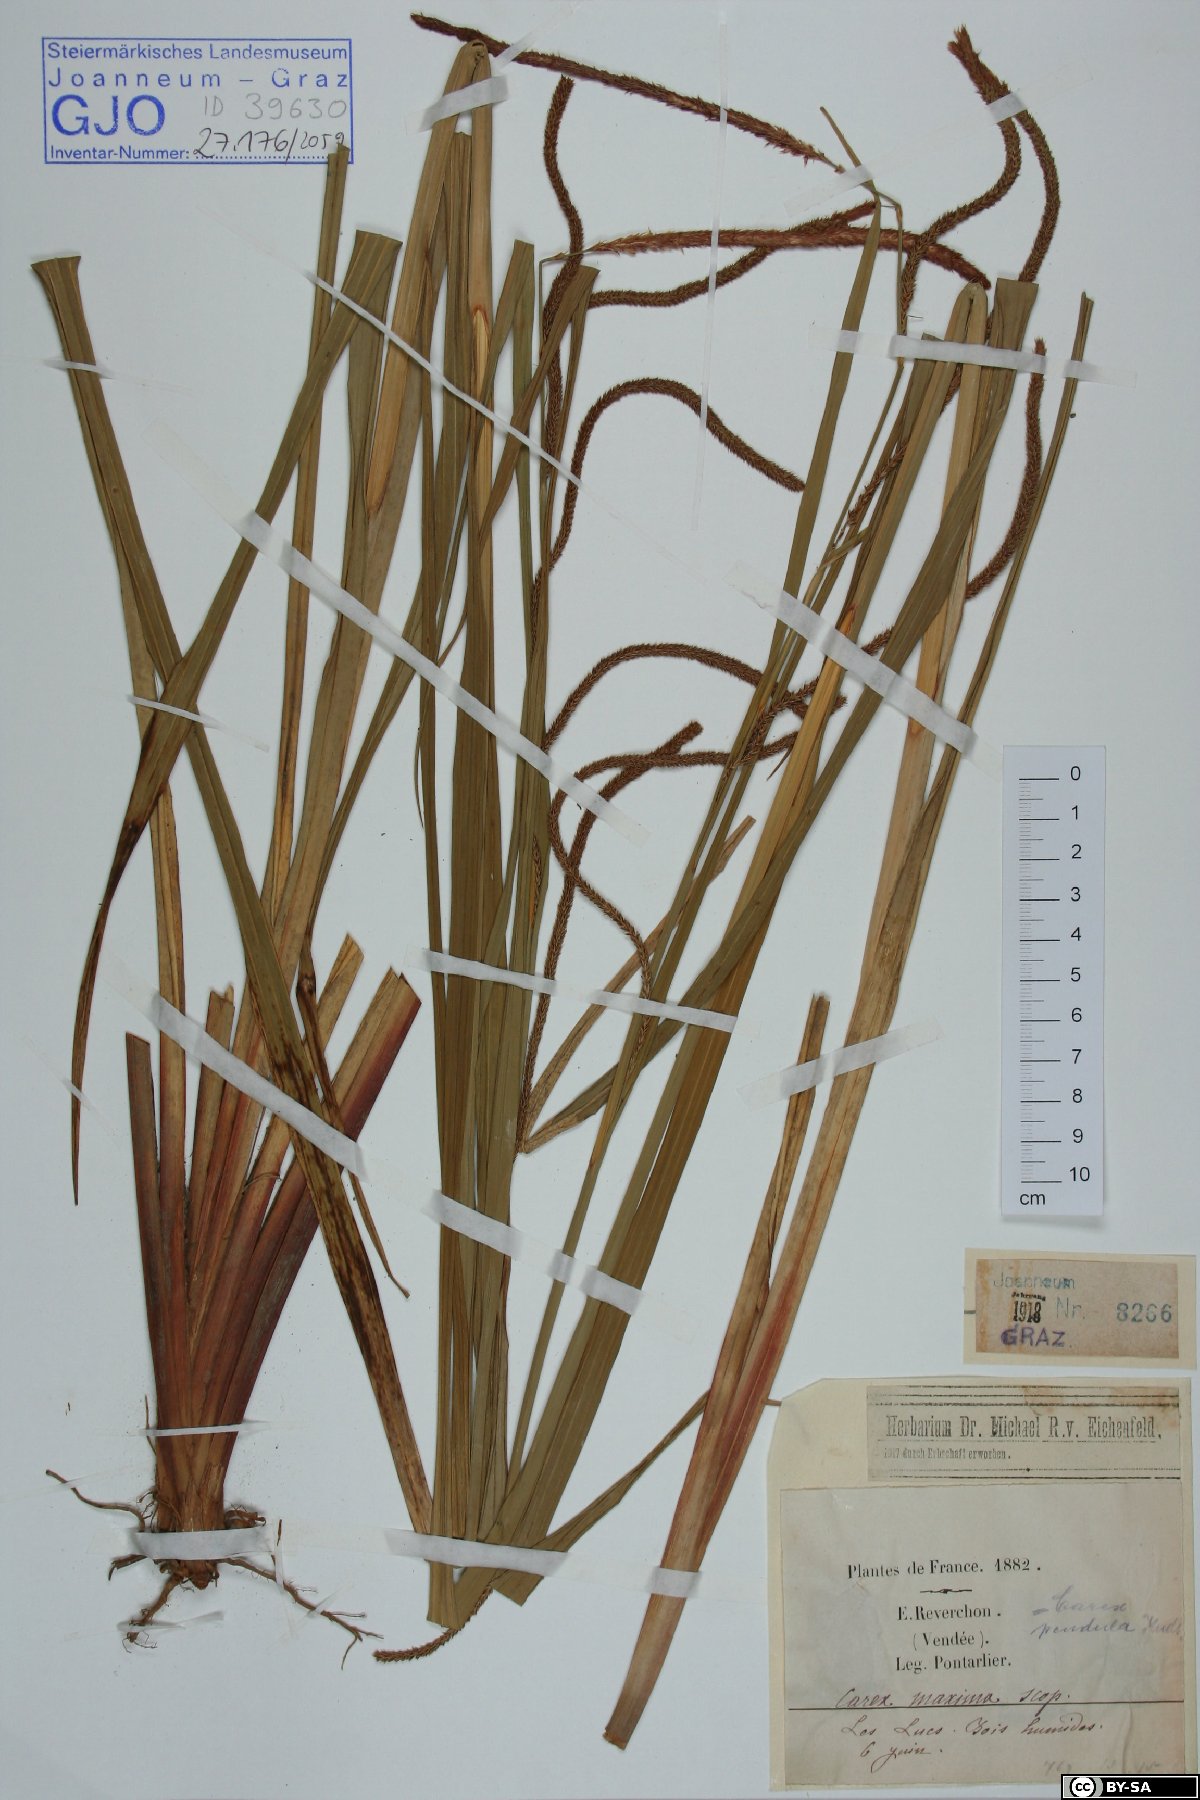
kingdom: Plantae
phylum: Tracheophyta
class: Liliopsida
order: Poales
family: Cyperaceae
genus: Carex
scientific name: Carex pendula
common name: Pendulous sedge
